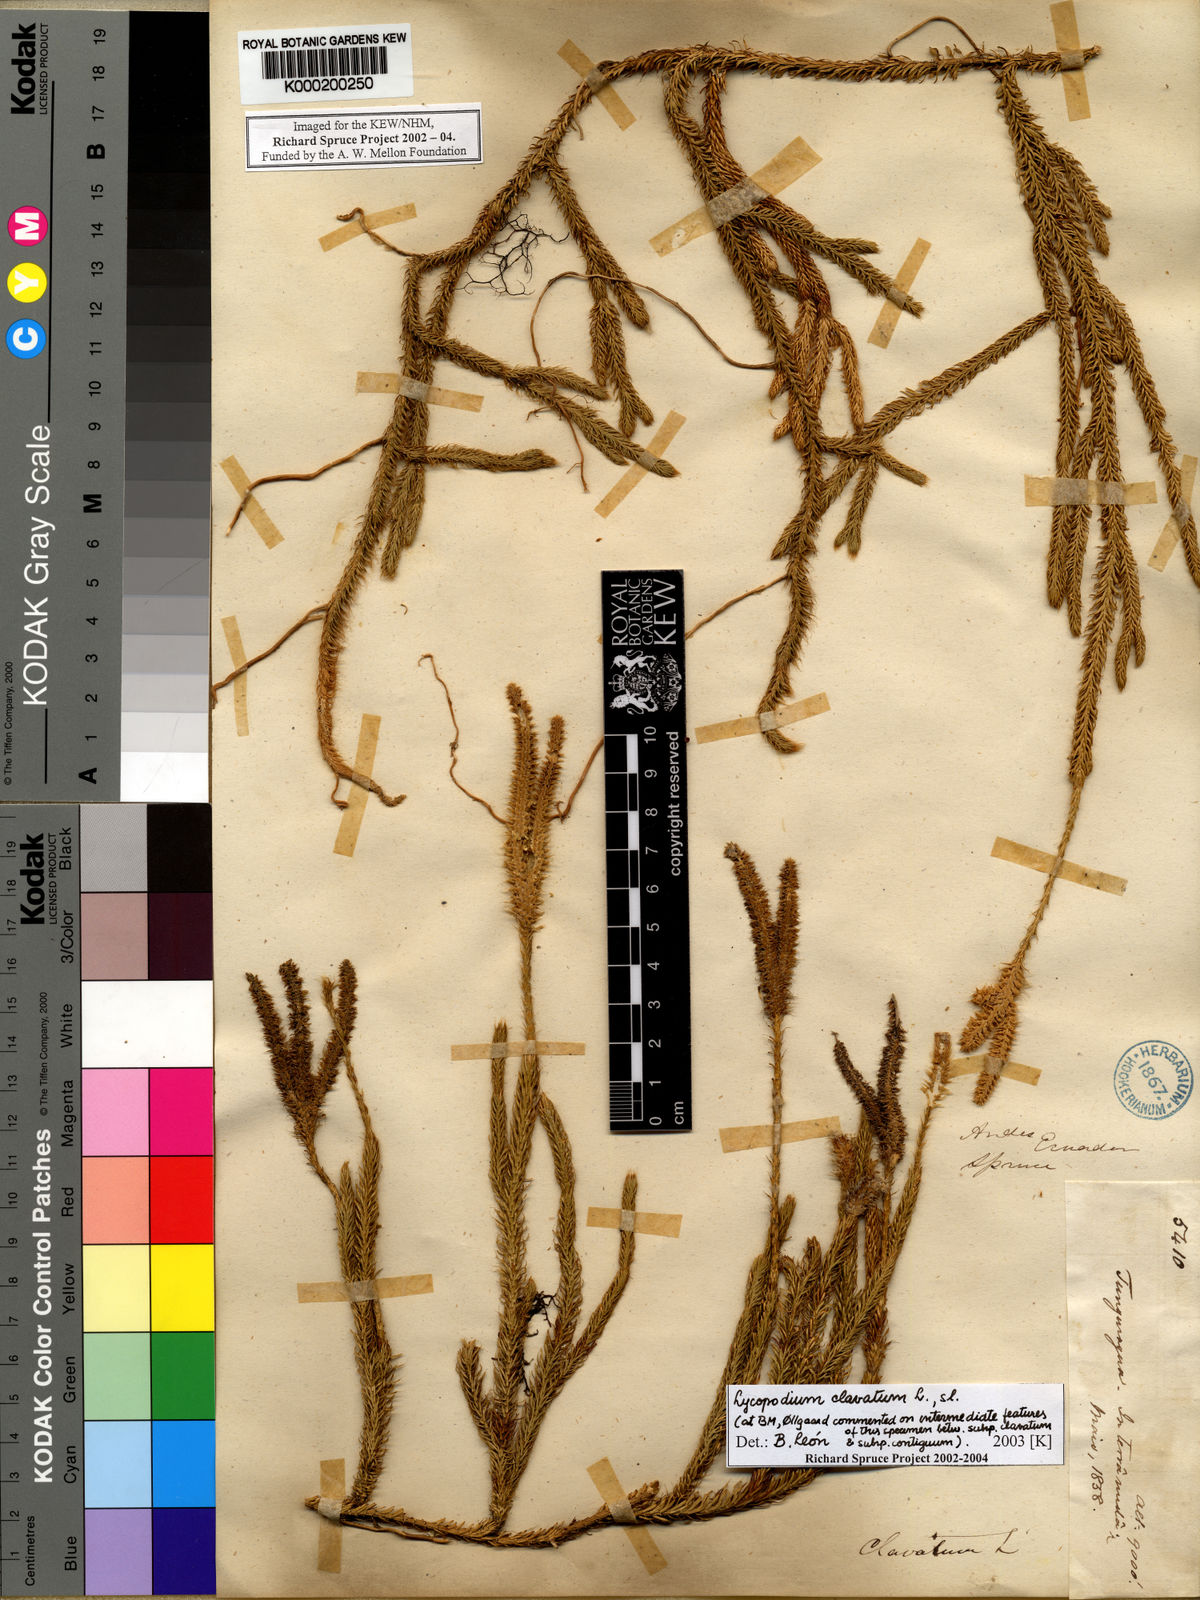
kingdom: Plantae
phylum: Tracheophyta
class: Lycopodiopsida
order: Lycopodiales
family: Lycopodiaceae
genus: Lycopodium
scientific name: Lycopodium clavatum
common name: Stag's-horn clubmoss
